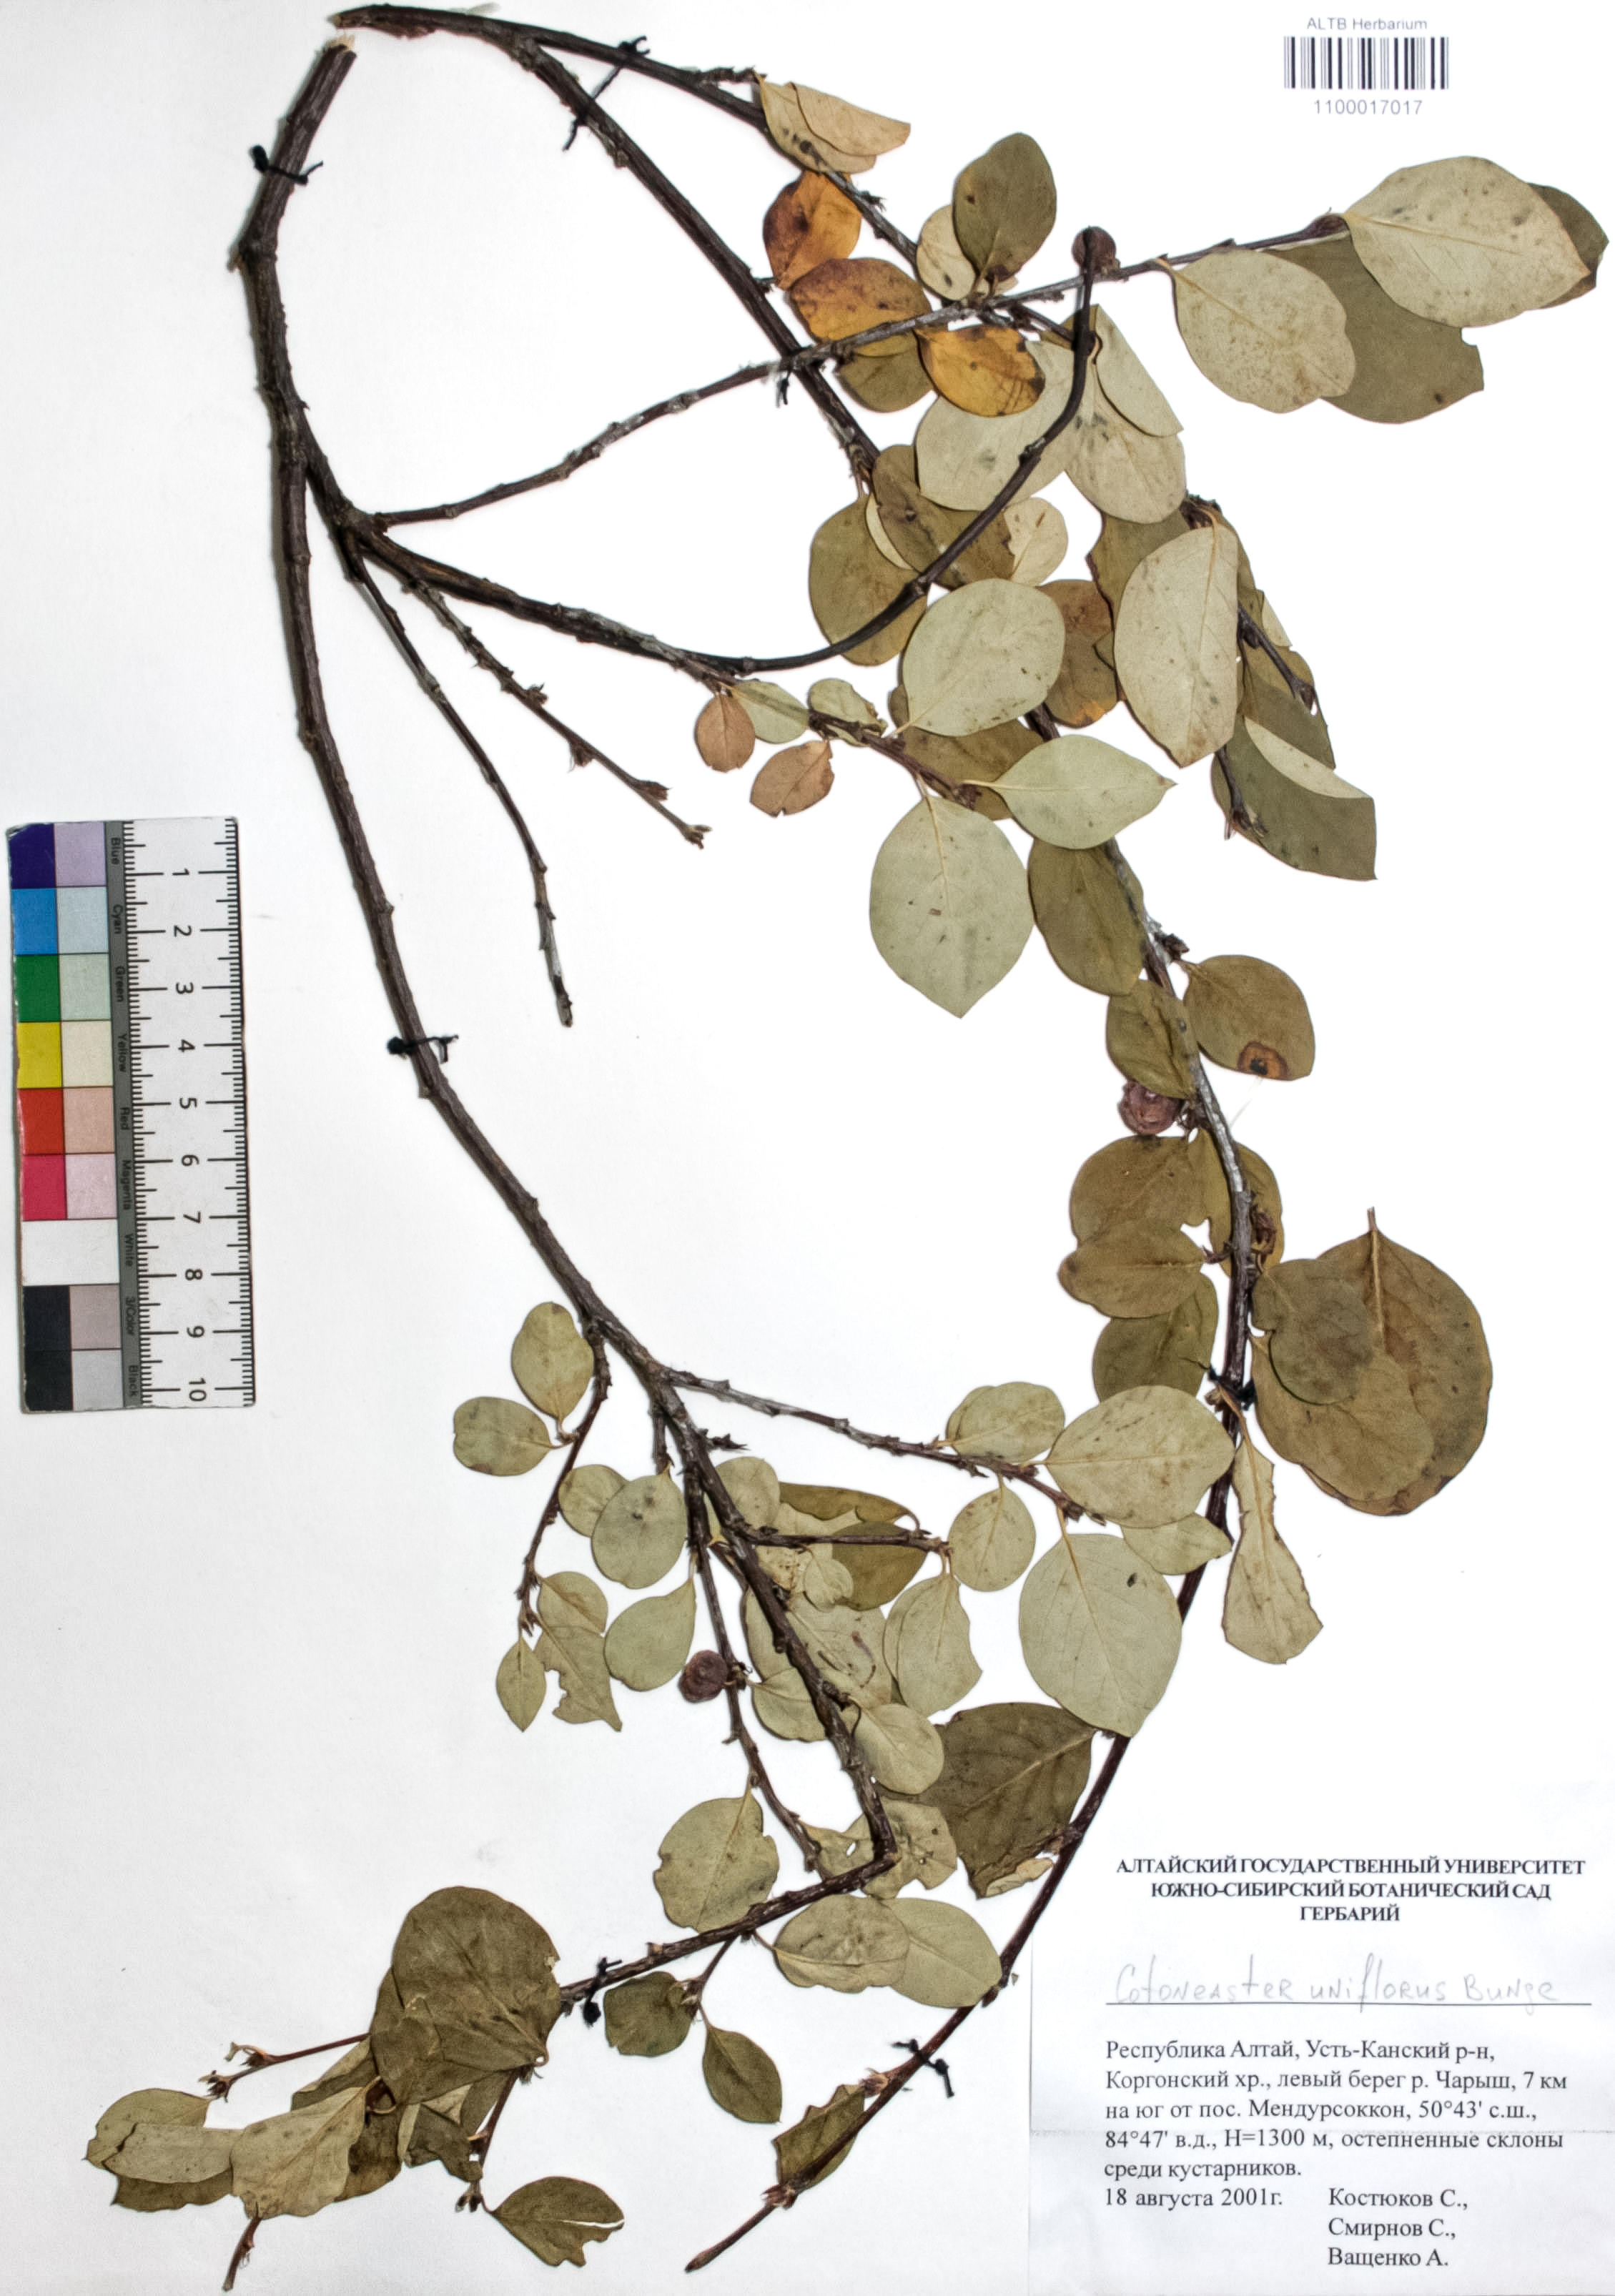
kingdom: Plantae
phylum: Tracheophyta
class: Magnoliopsida
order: Rosales
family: Rosaceae
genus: Cotoneaster
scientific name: Cotoneaster uniflorus
